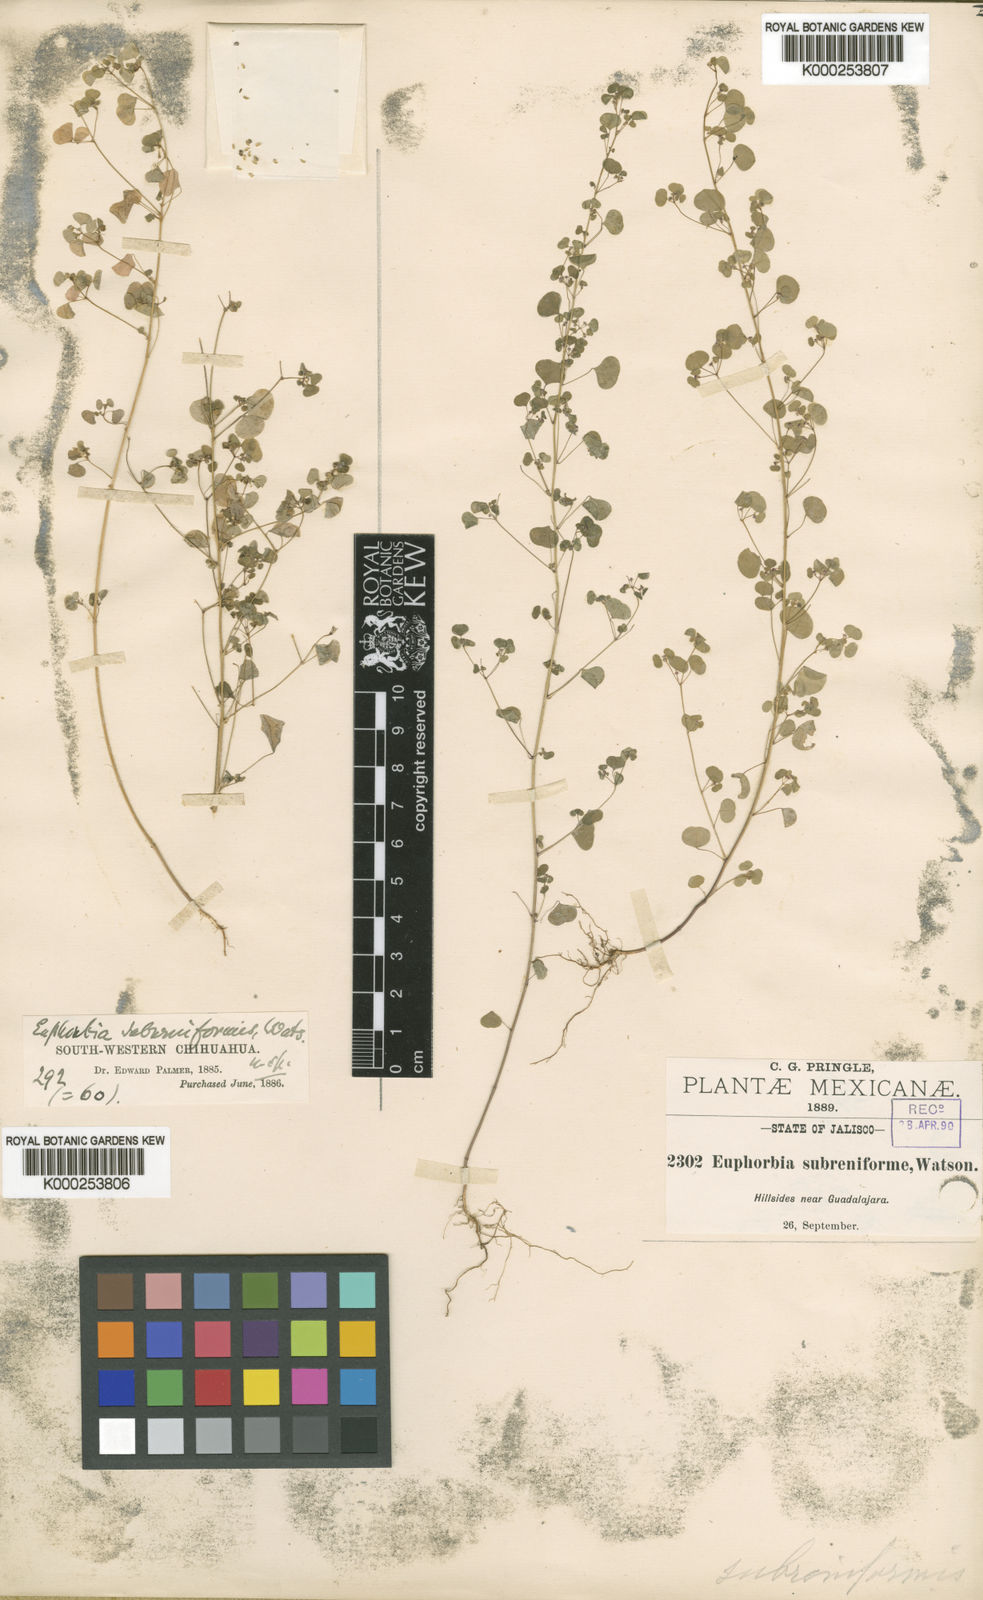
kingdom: Plantae
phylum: Tracheophyta
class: Magnoliopsida
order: Malpighiales
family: Euphorbiaceae
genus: Euphorbia
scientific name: Euphorbia fimbrilligera
